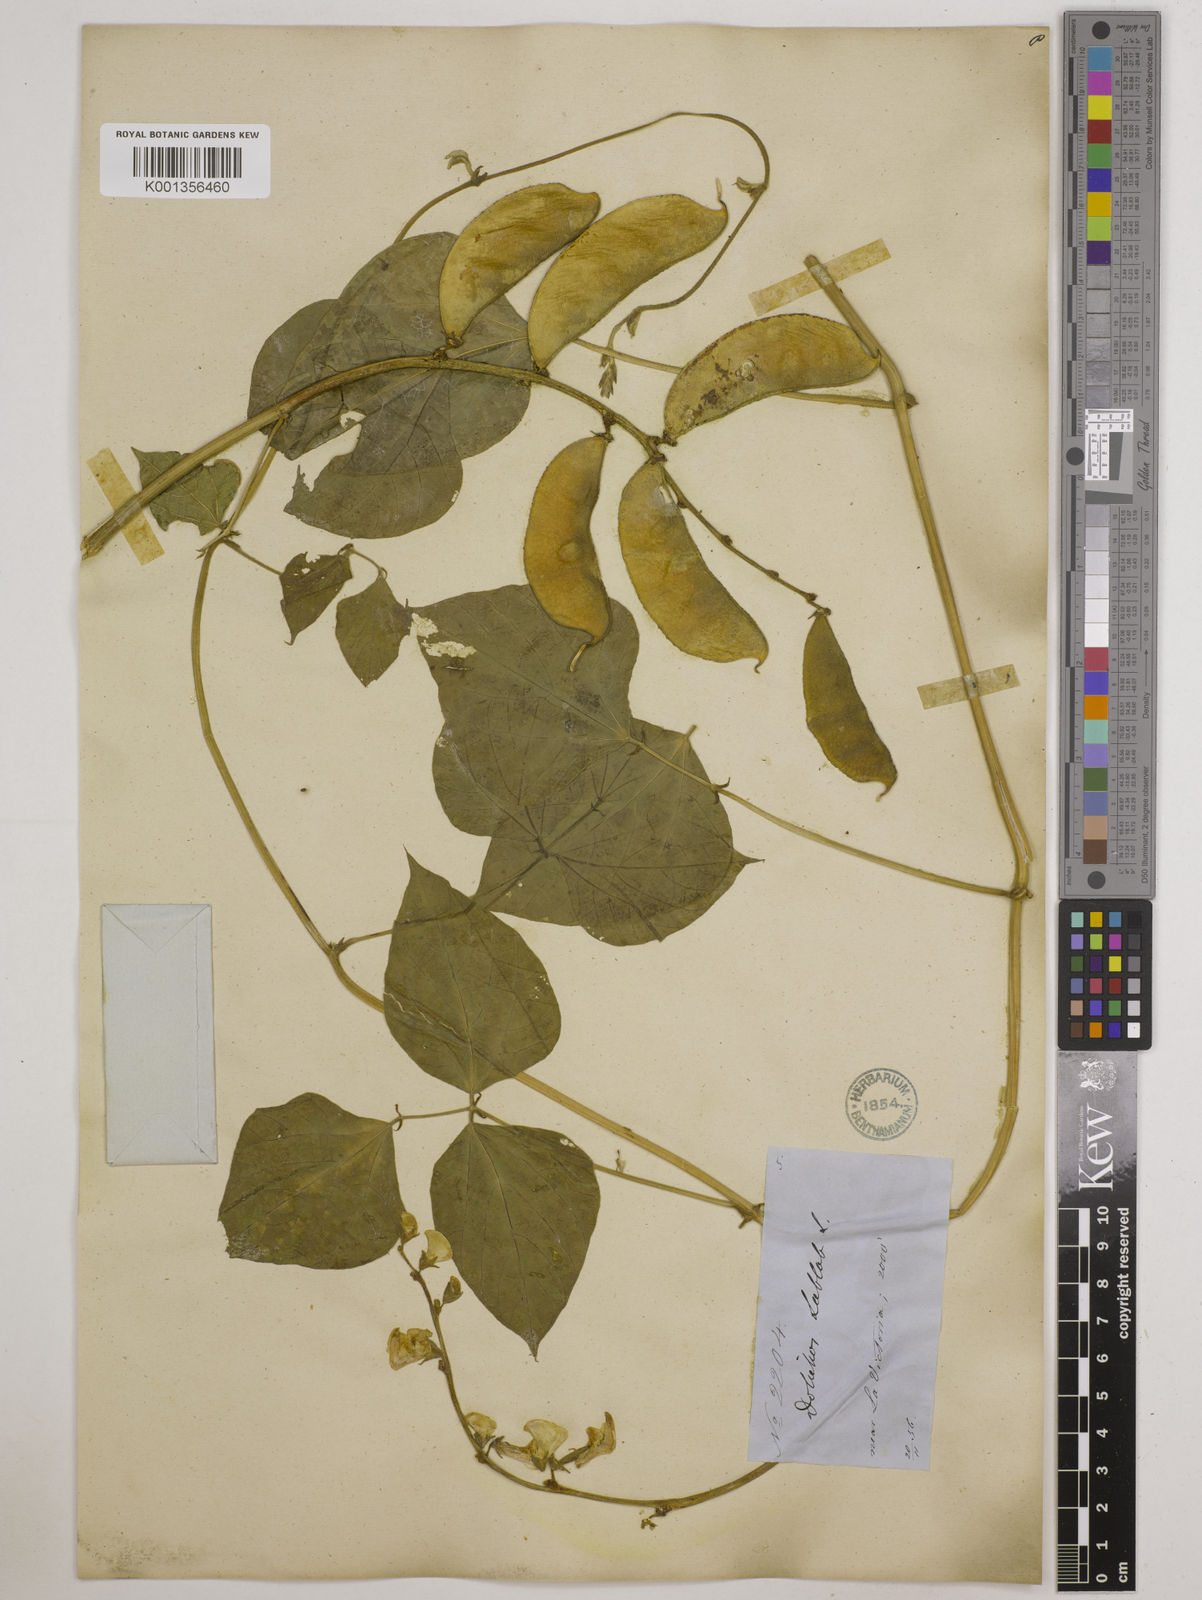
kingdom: Plantae
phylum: Tracheophyta
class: Magnoliopsida
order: Fabales
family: Fabaceae
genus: Lablab
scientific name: Lablab purpureus
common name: Lablab-bean
